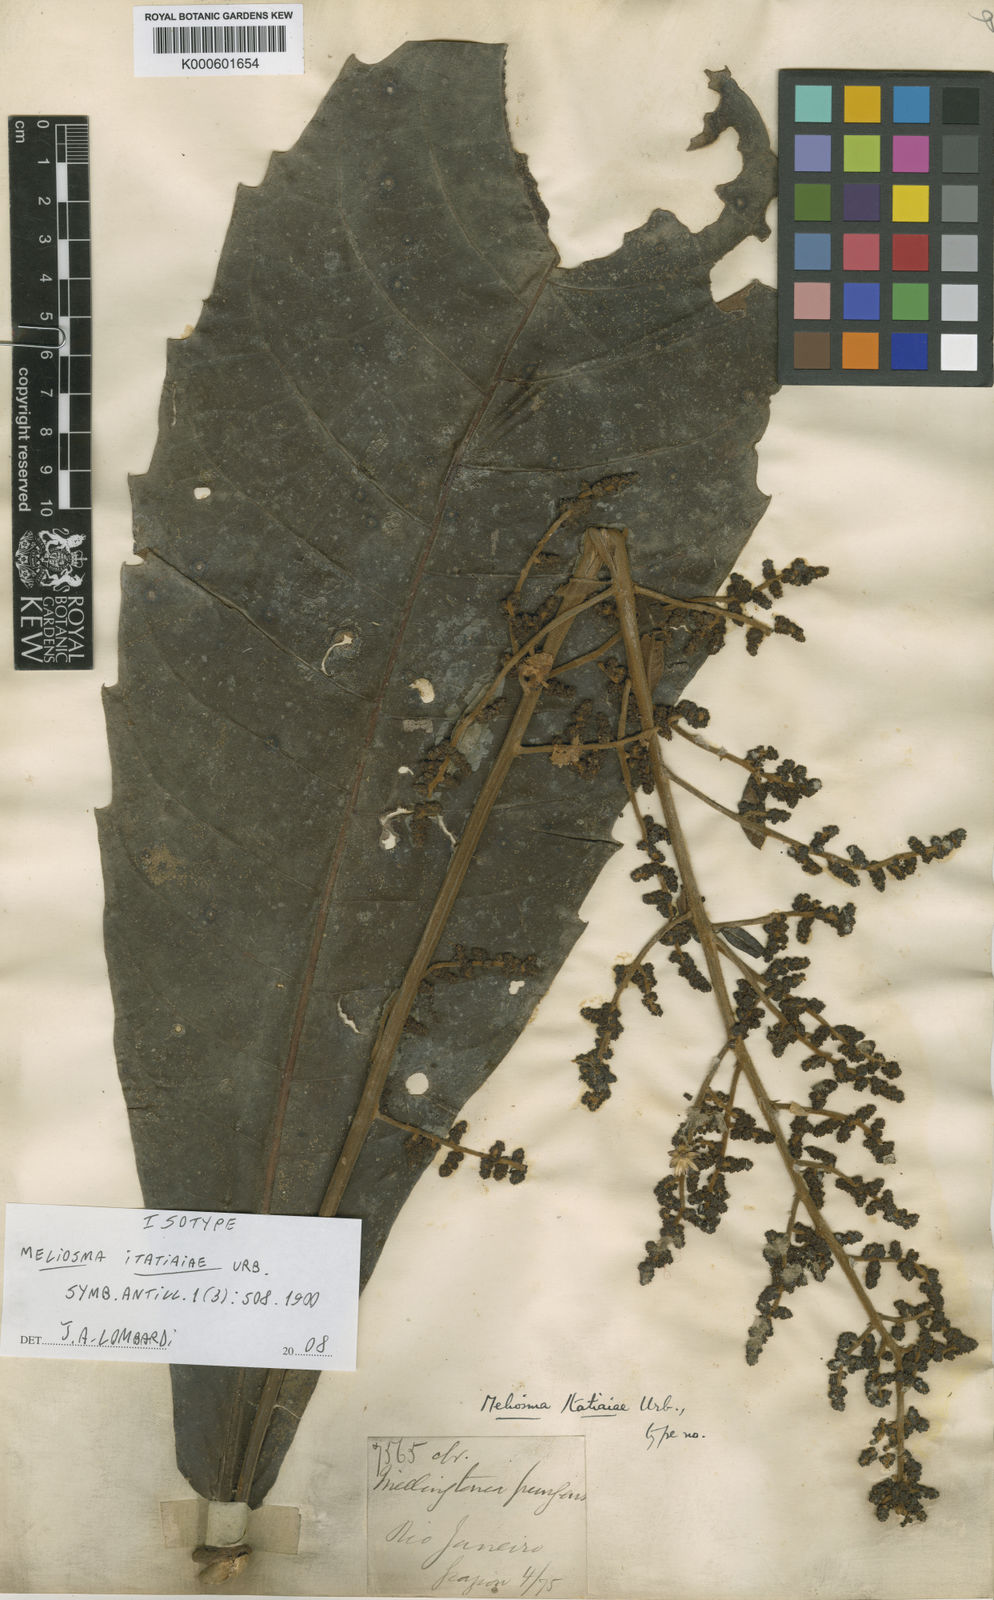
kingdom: Plantae
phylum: Tracheophyta
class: Magnoliopsida
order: Proteales
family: Sabiaceae
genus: Meliosma
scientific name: Meliosma itatiaiae
